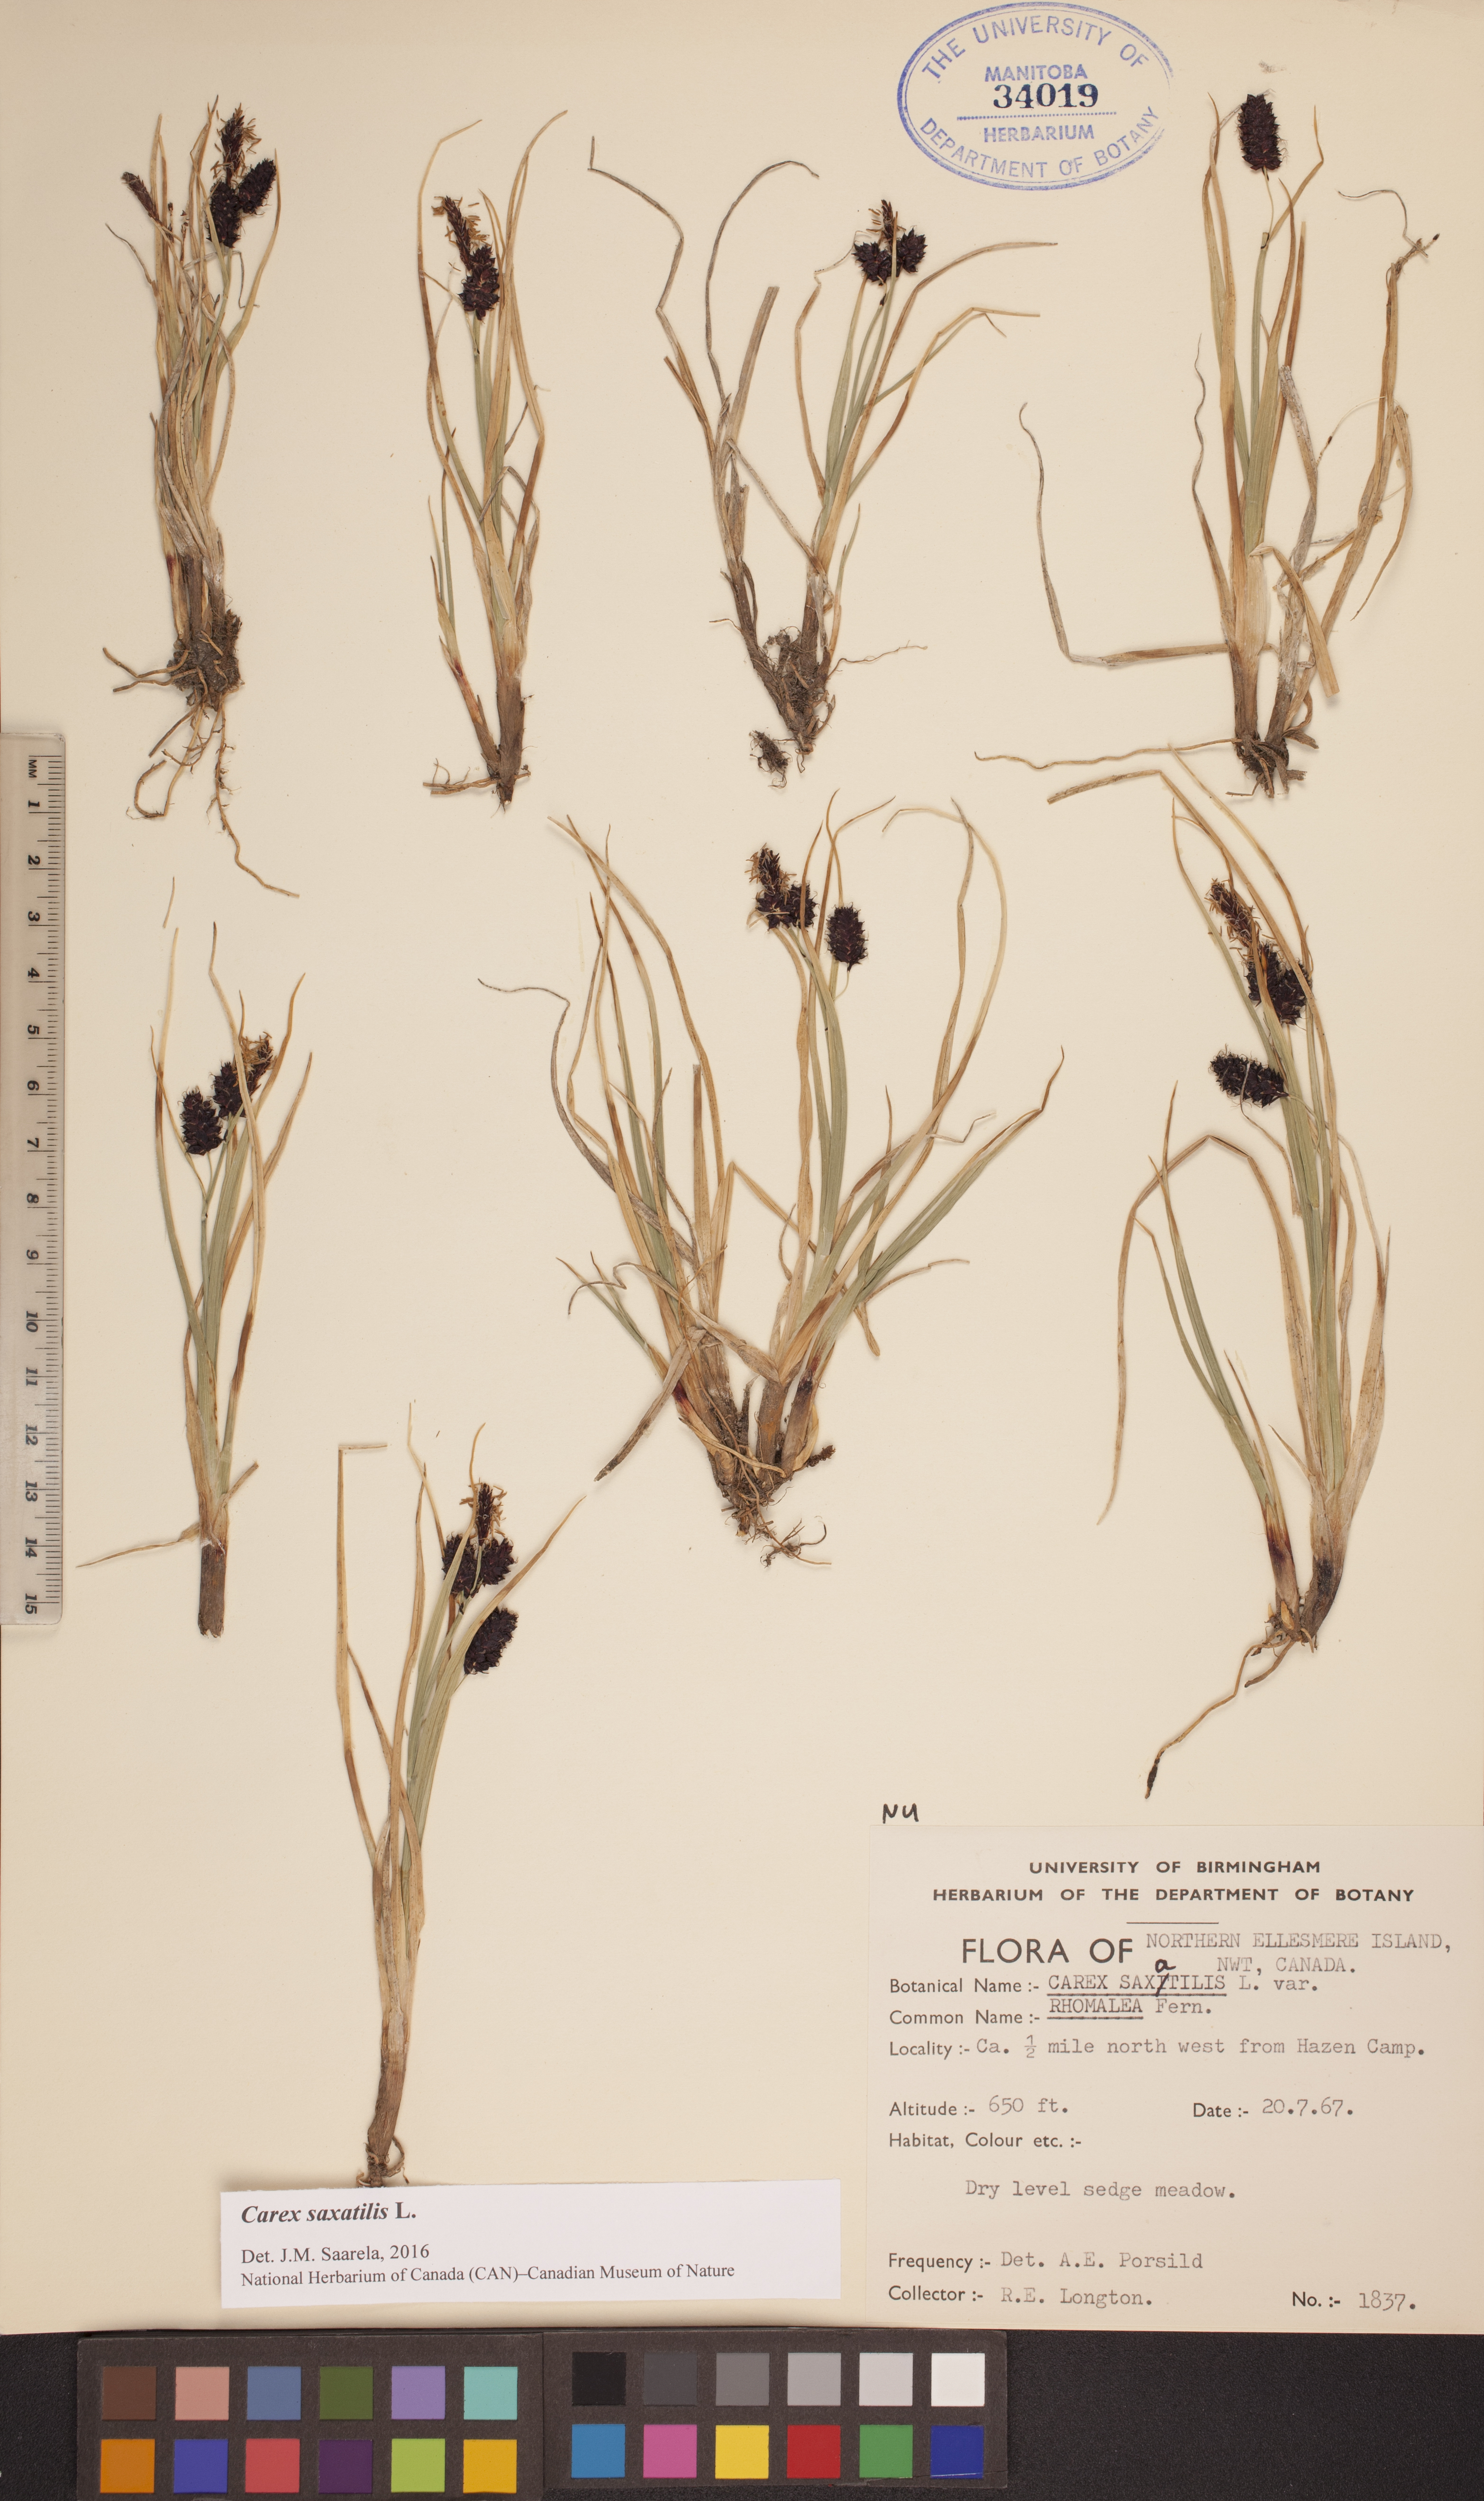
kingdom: Plantae
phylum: Tracheophyta
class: Liliopsida
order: Poales
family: Cyperaceae
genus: Carex
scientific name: Carex saxatilis
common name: Russet sedge
